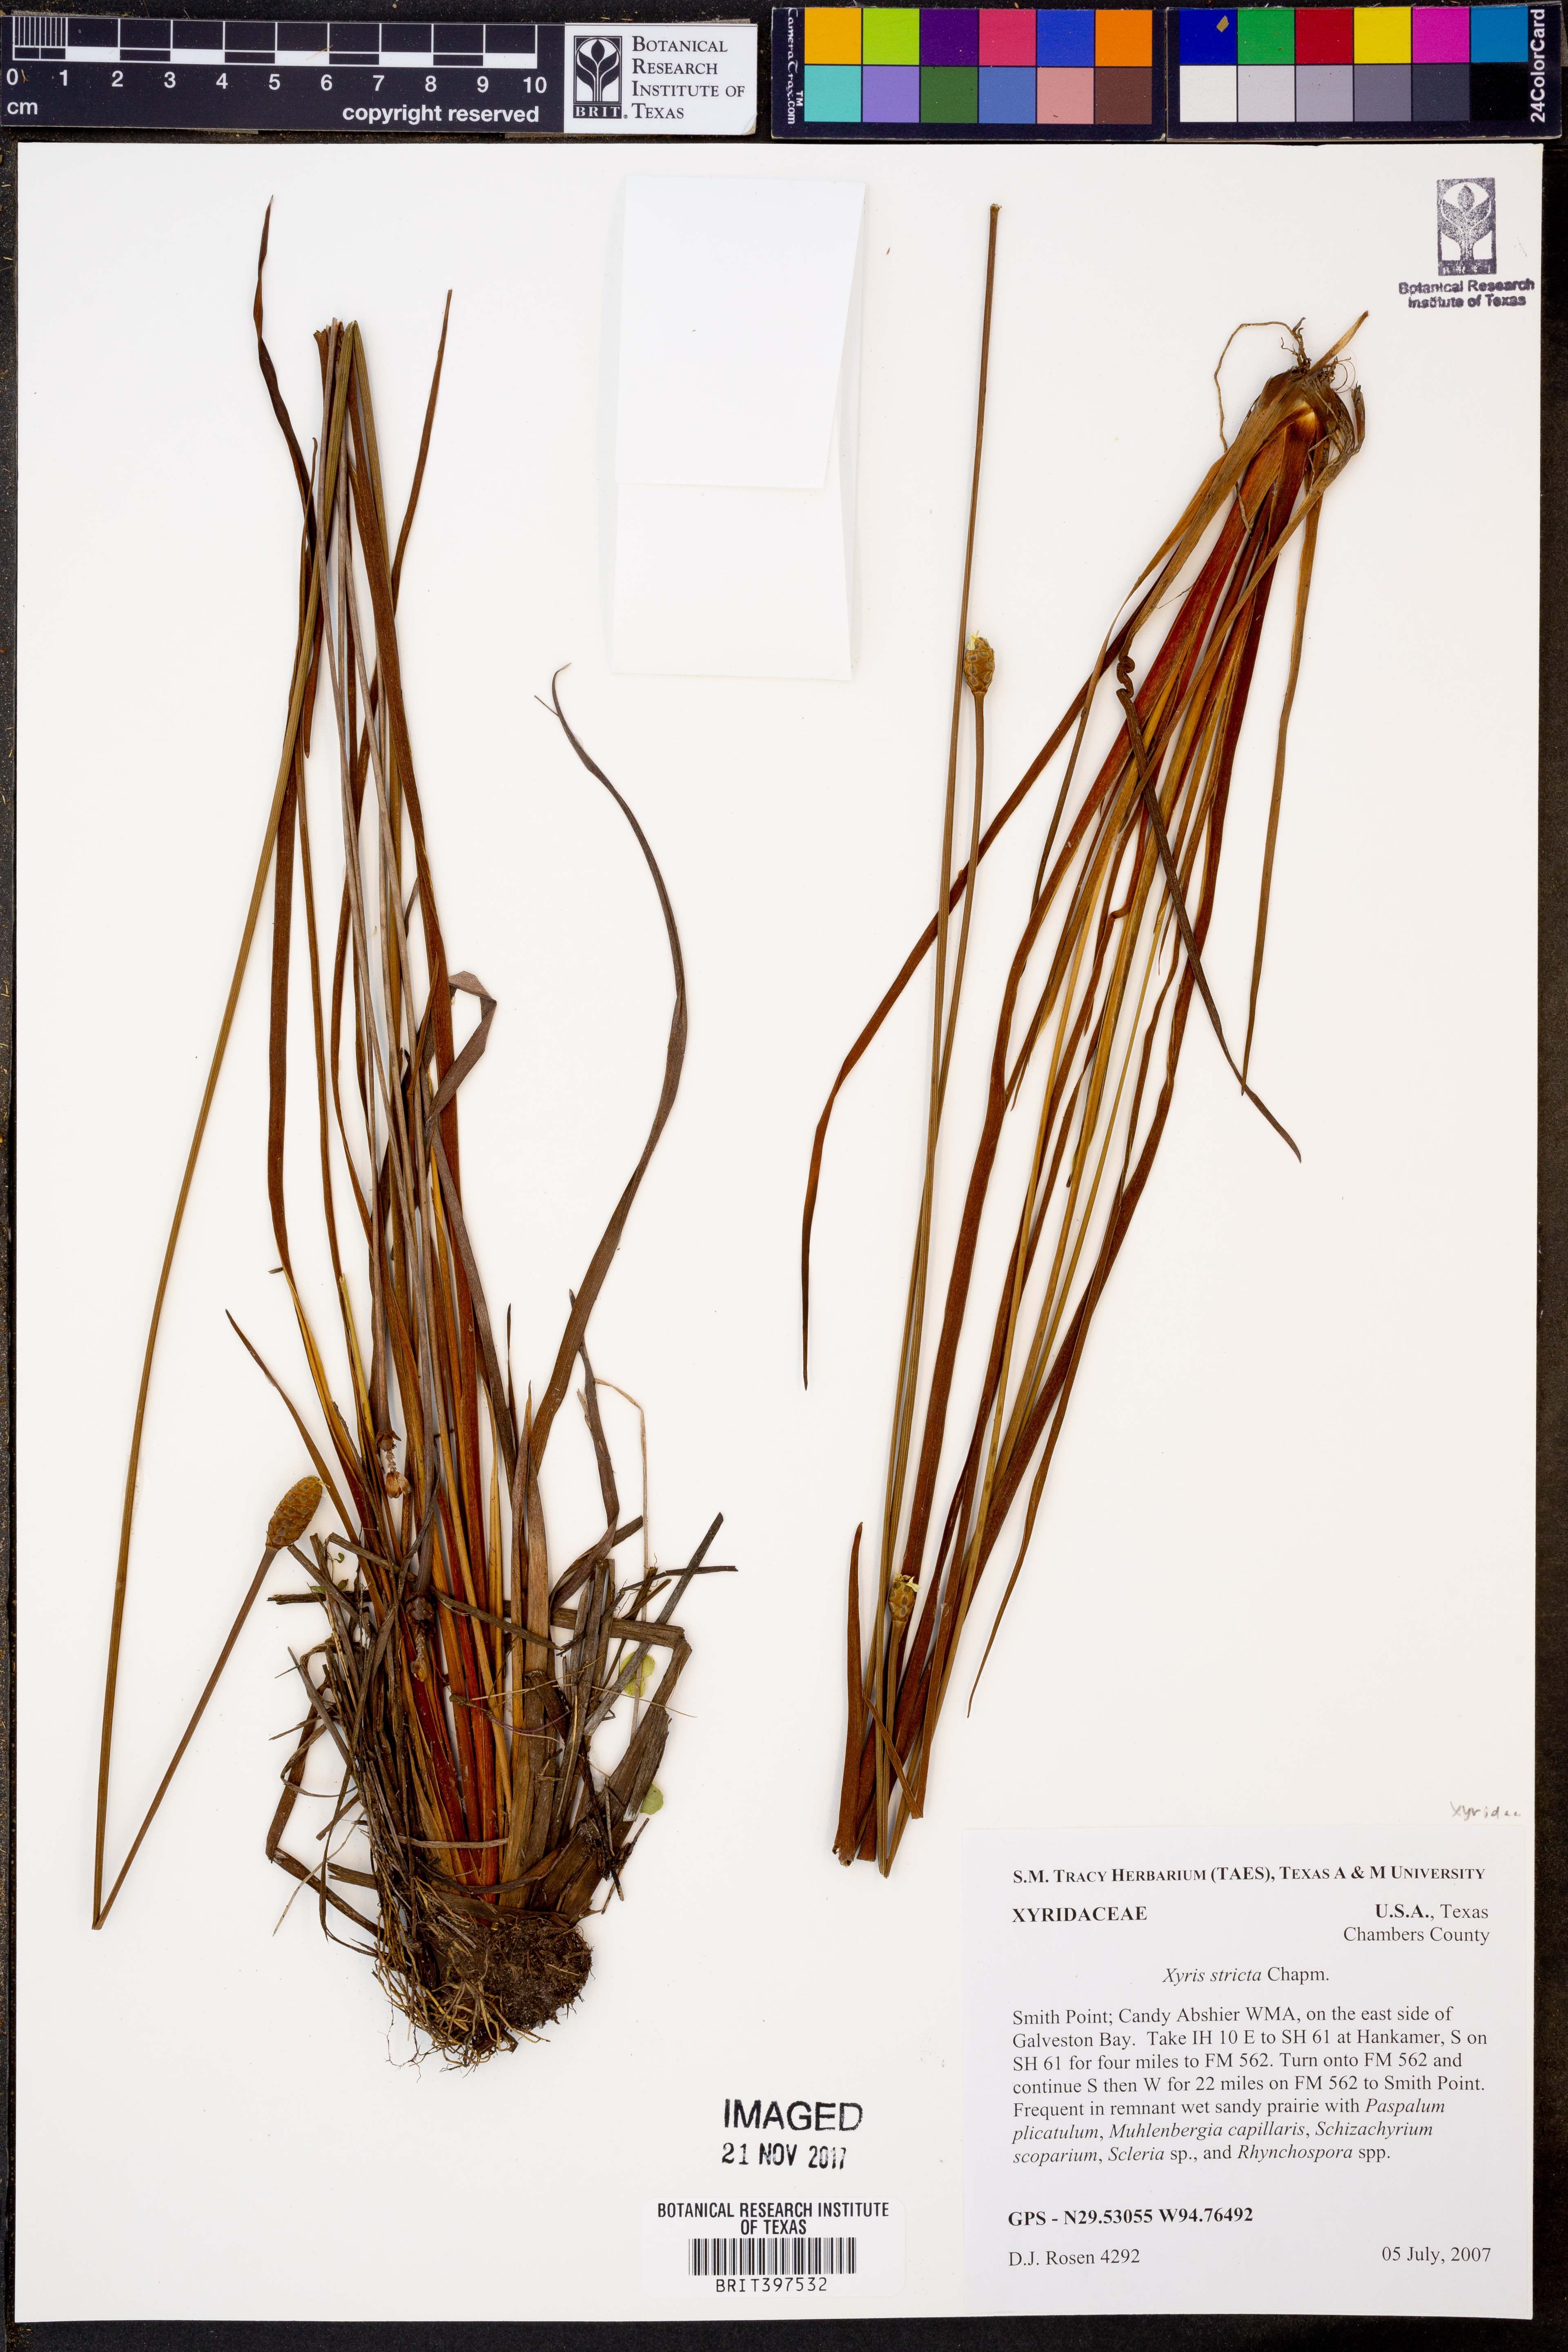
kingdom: Plantae
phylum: Tracheophyta
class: Liliopsida
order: Poales
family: Xyridaceae
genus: Xyris
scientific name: Xyris stricta
